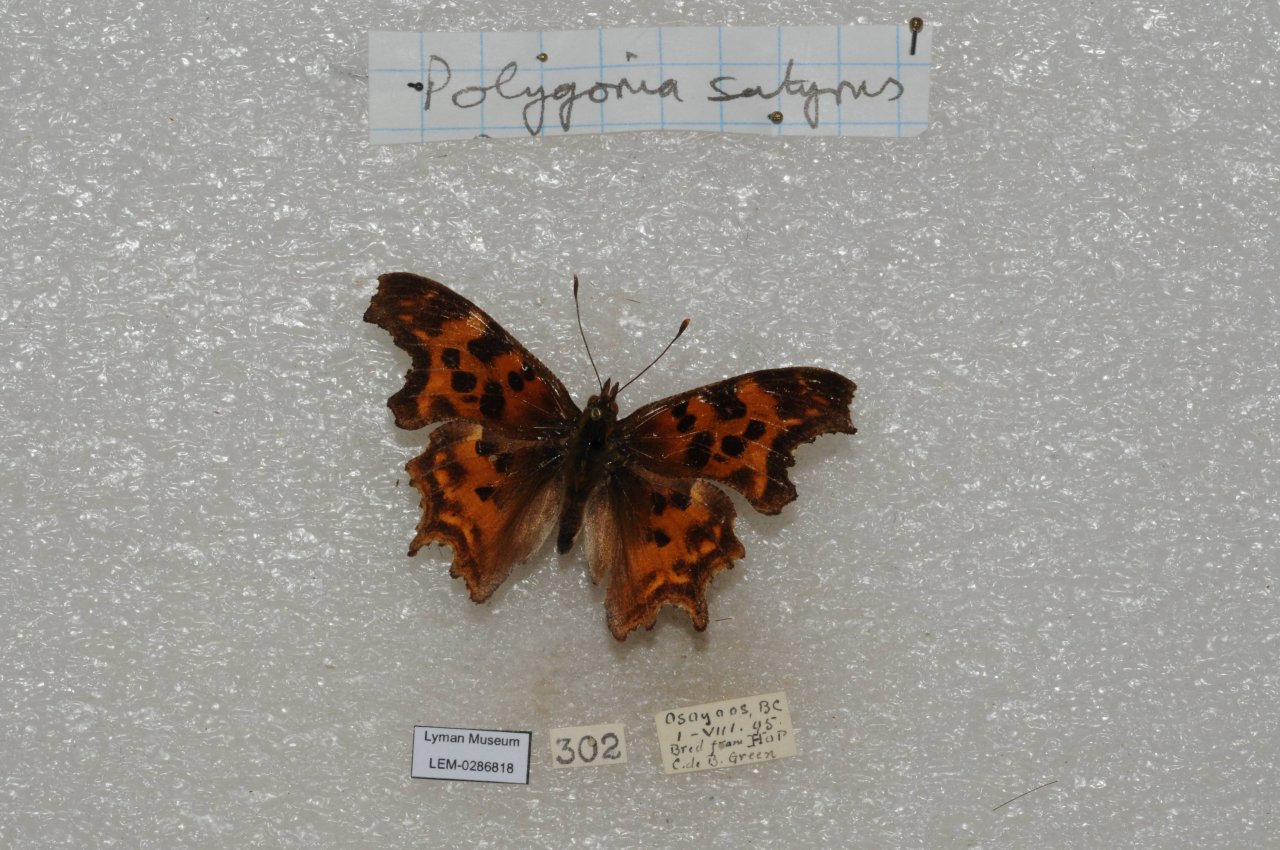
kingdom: Animalia
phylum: Arthropoda
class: Insecta
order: Lepidoptera
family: Nymphalidae
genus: Polygonia
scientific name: Polygonia satyrus
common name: Satyr Comma
